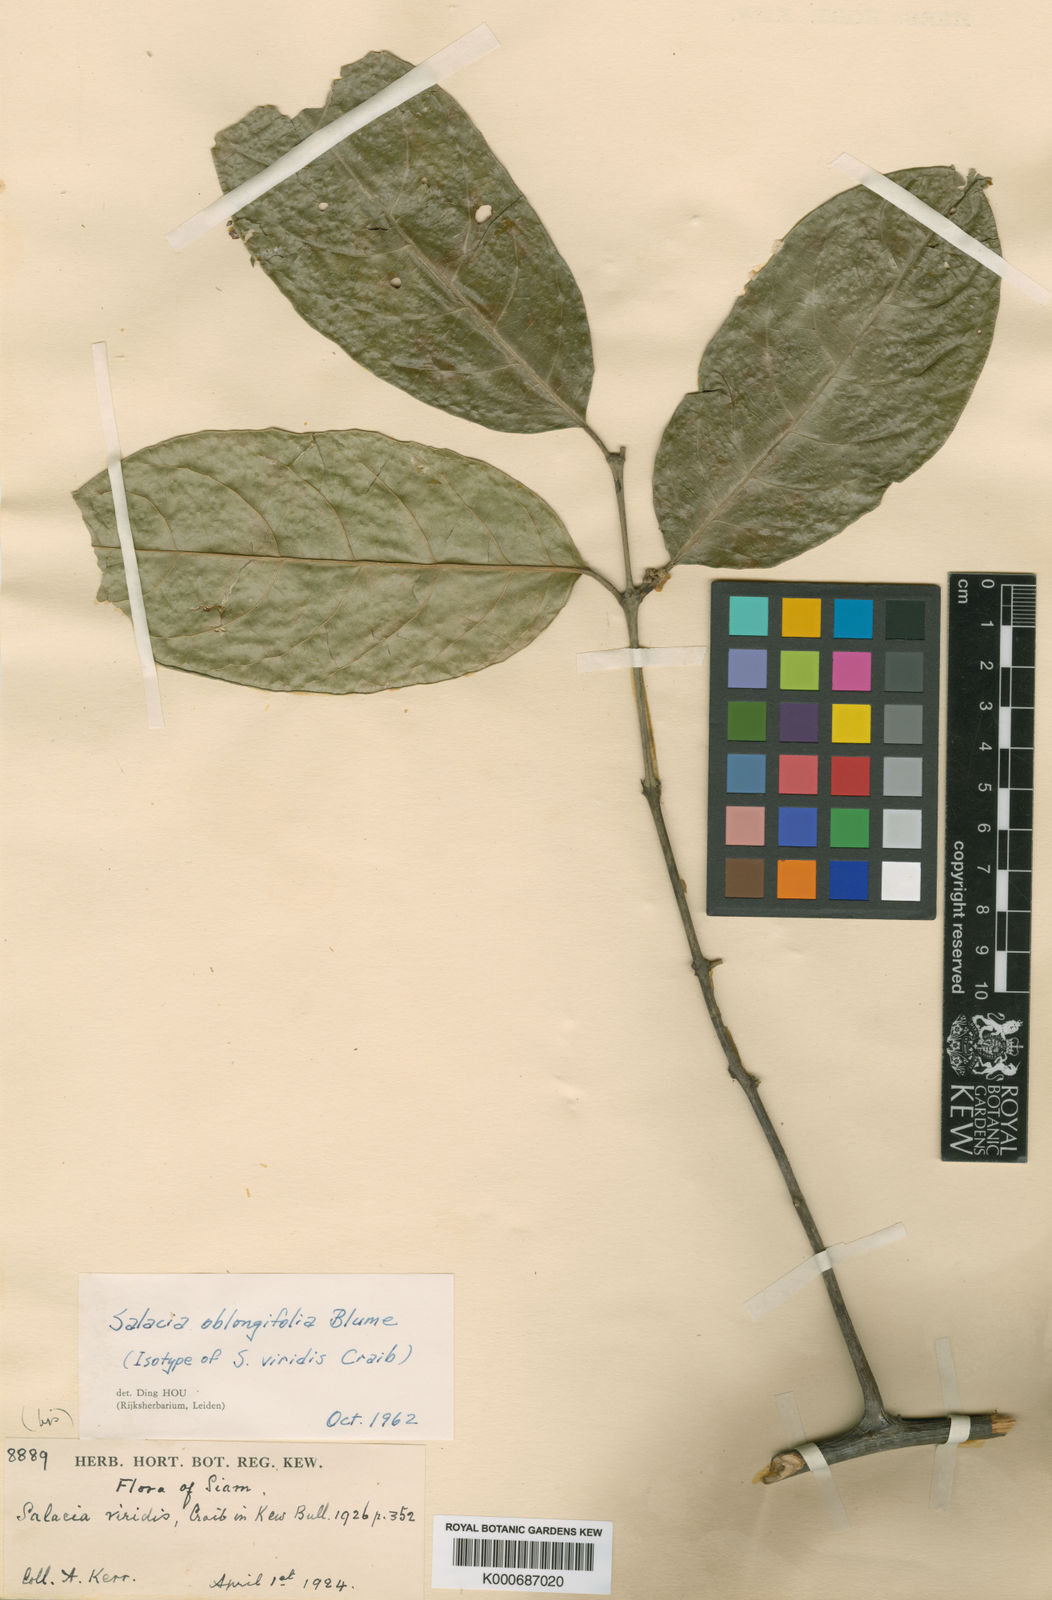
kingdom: Plantae
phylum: Tracheophyta
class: Magnoliopsida
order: Celastrales
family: Celastraceae
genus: Salacia
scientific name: Salacia oblongifolia
